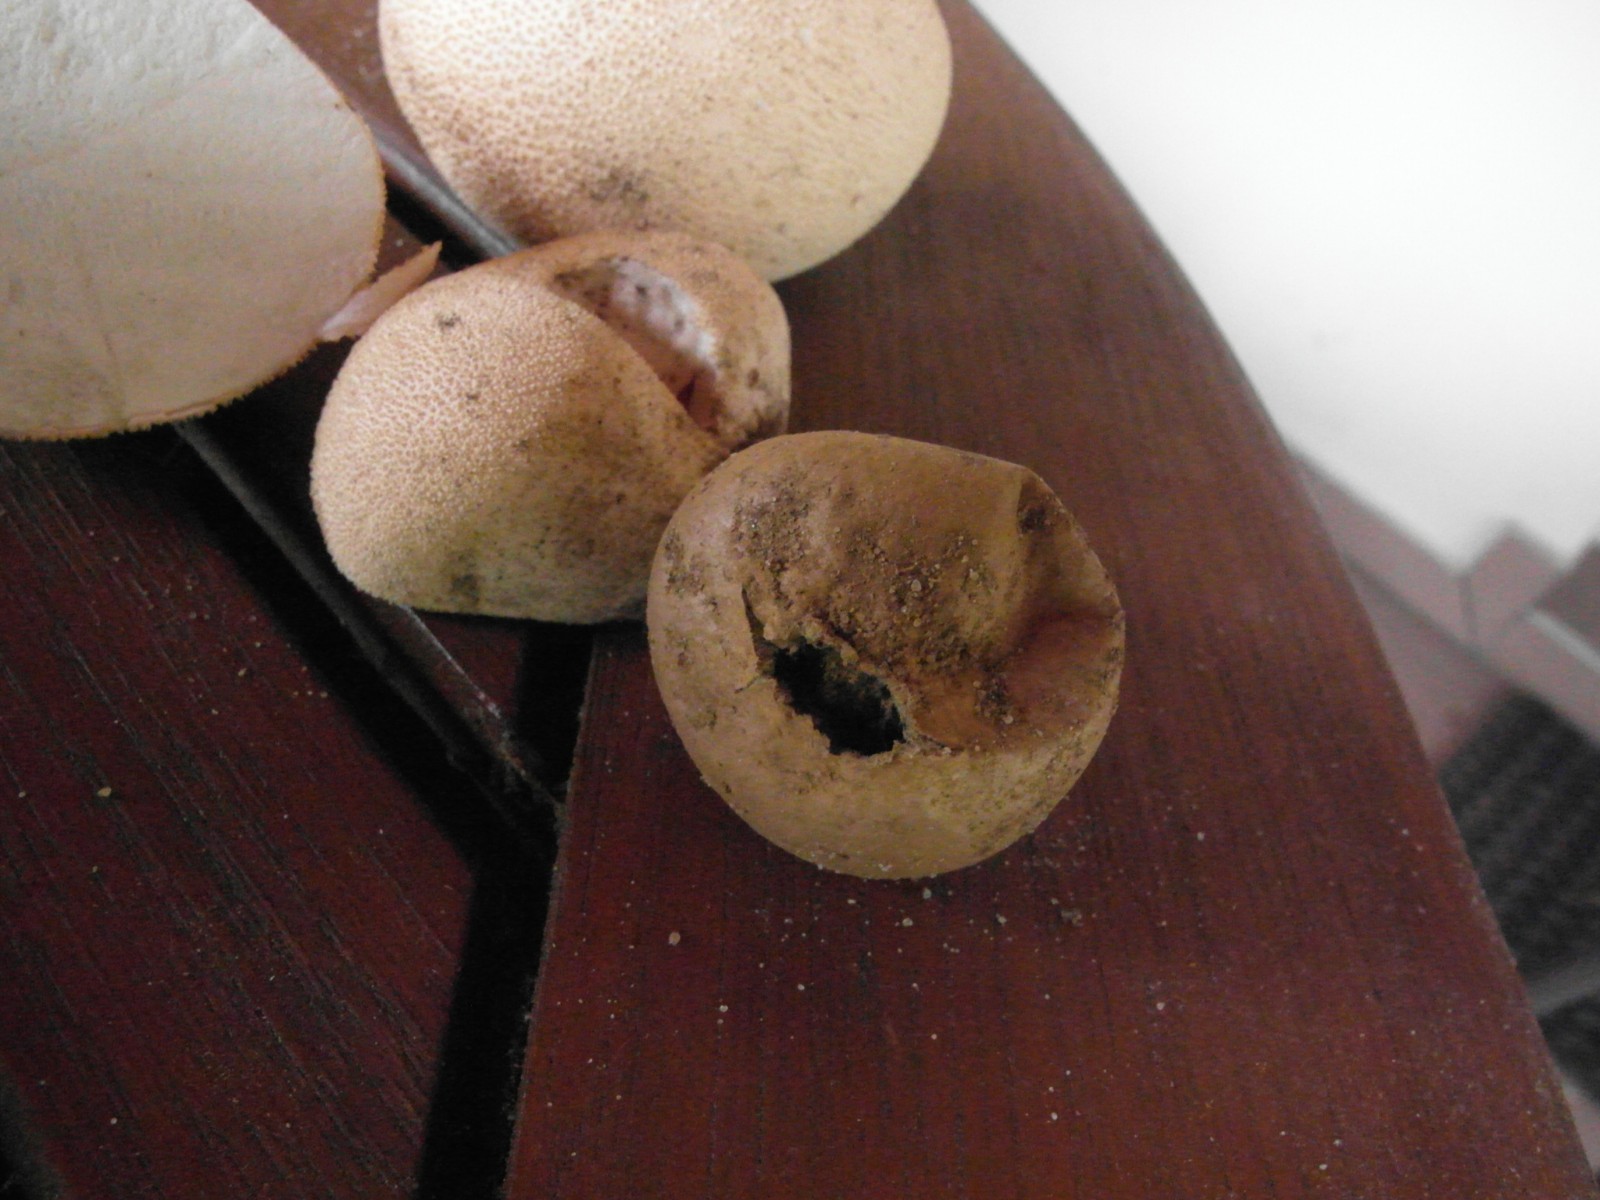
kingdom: Fungi
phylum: Basidiomycota
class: Agaricomycetes
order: Agaricales
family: Lycoperdaceae
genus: Lycoperdon
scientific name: Lycoperdon pratense
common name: flad støvbold
